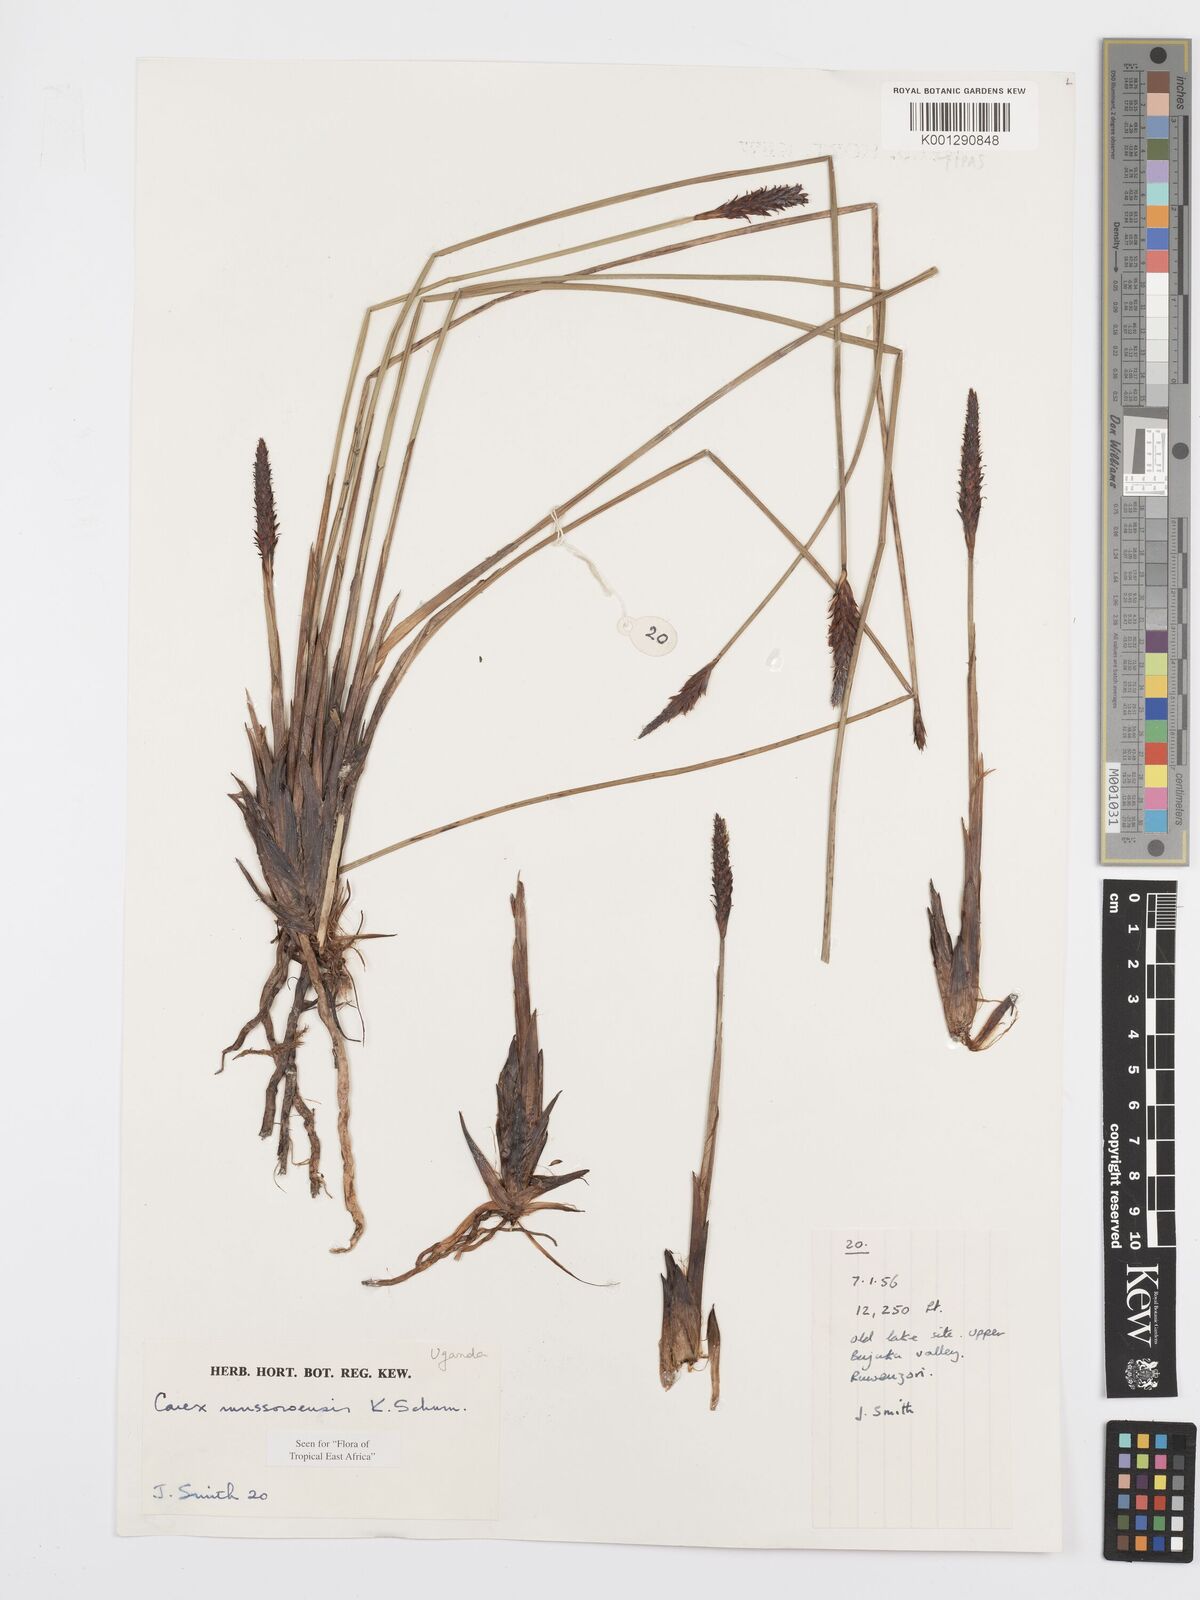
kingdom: Plantae
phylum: Tracheophyta
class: Liliopsida
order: Poales
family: Cyperaceae
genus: Carex
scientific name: Carex runssoroensis
